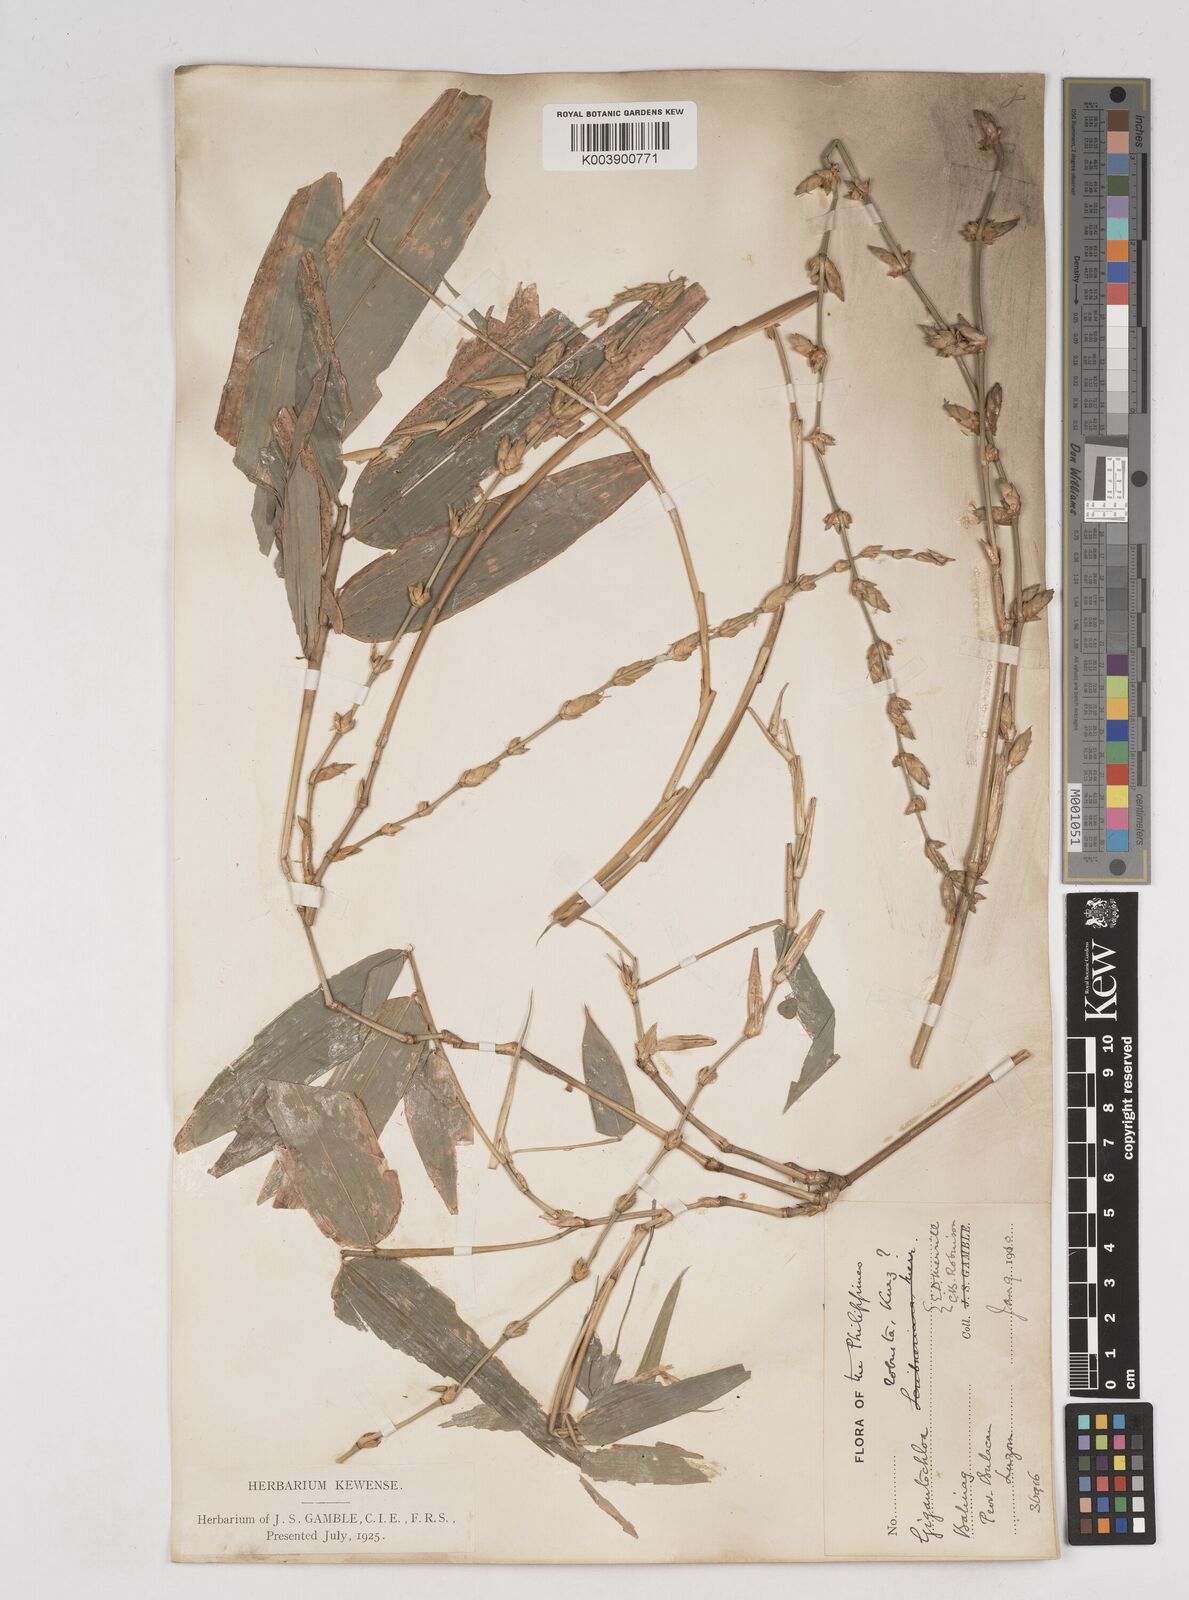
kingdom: Plantae
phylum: Tracheophyta
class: Liliopsida
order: Poales
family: Poaceae
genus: Gigantochloa
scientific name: Gigantochloa levis
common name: Smooth-shoot gigantochloa
